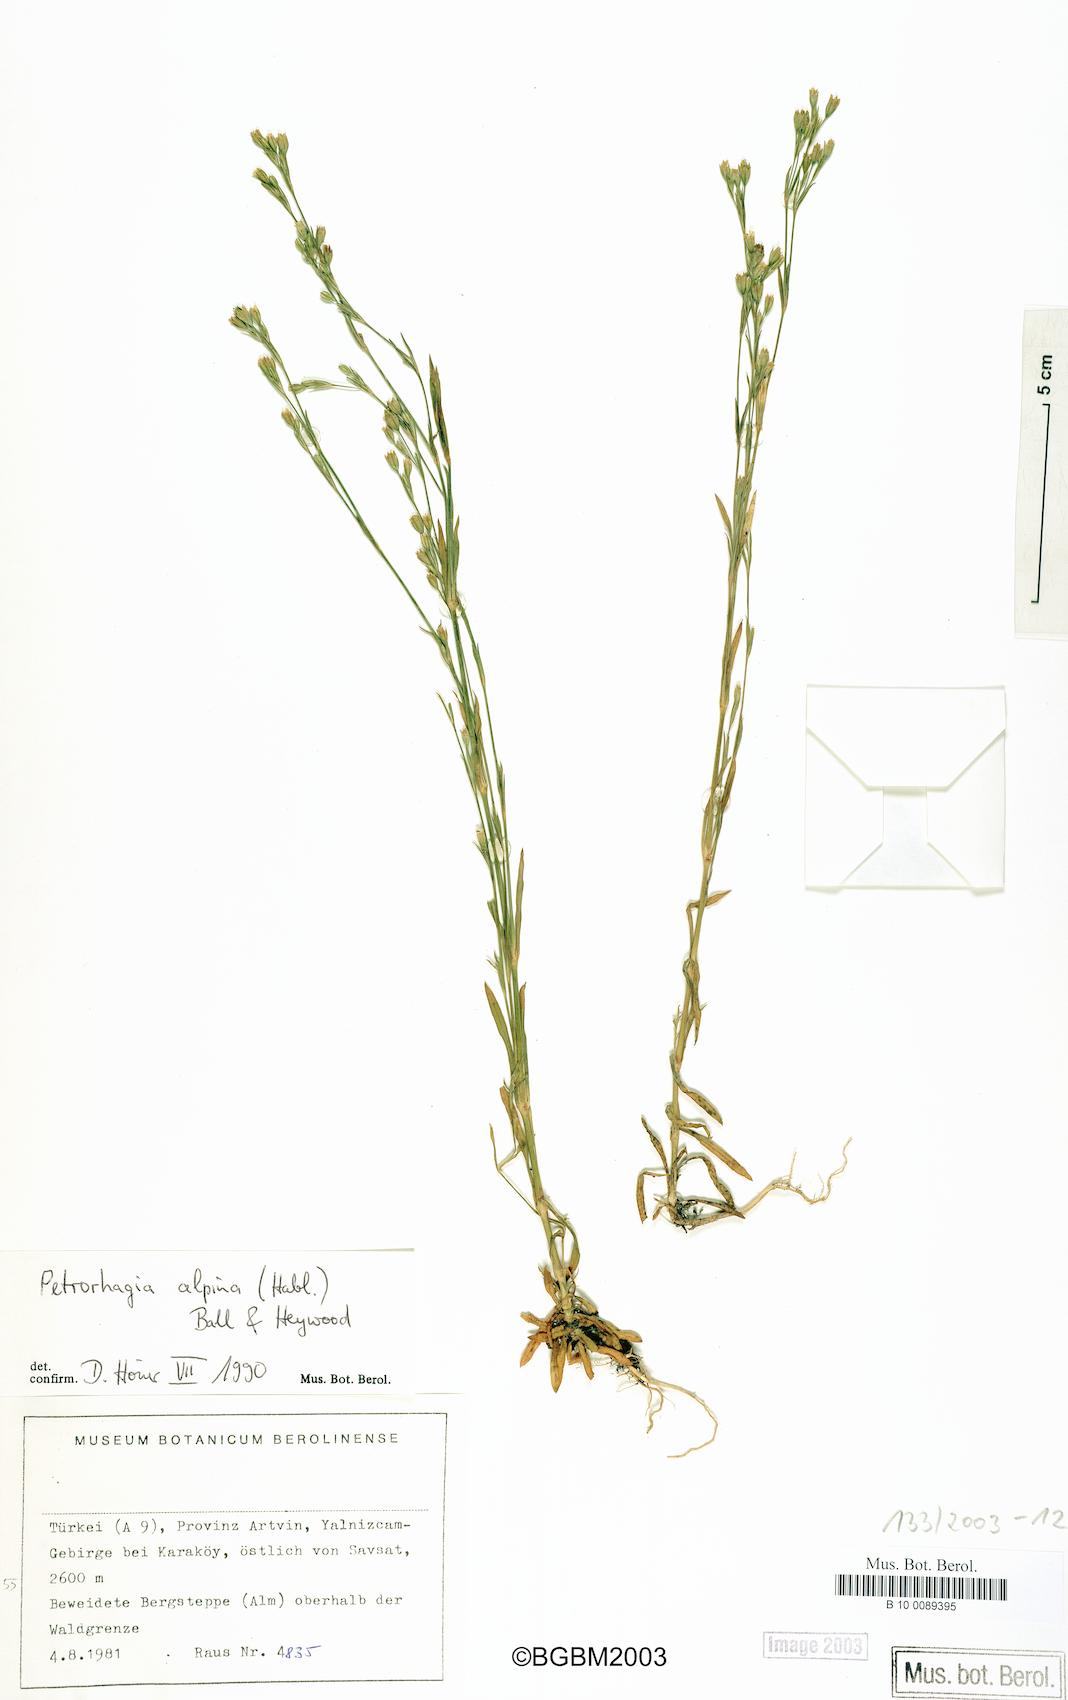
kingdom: Plantae
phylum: Tracheophyta
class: Magnoliopsida
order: Caryophyllales
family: Caryophyllaceae
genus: Petrorhagia
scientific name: Petrorhagia alpina
